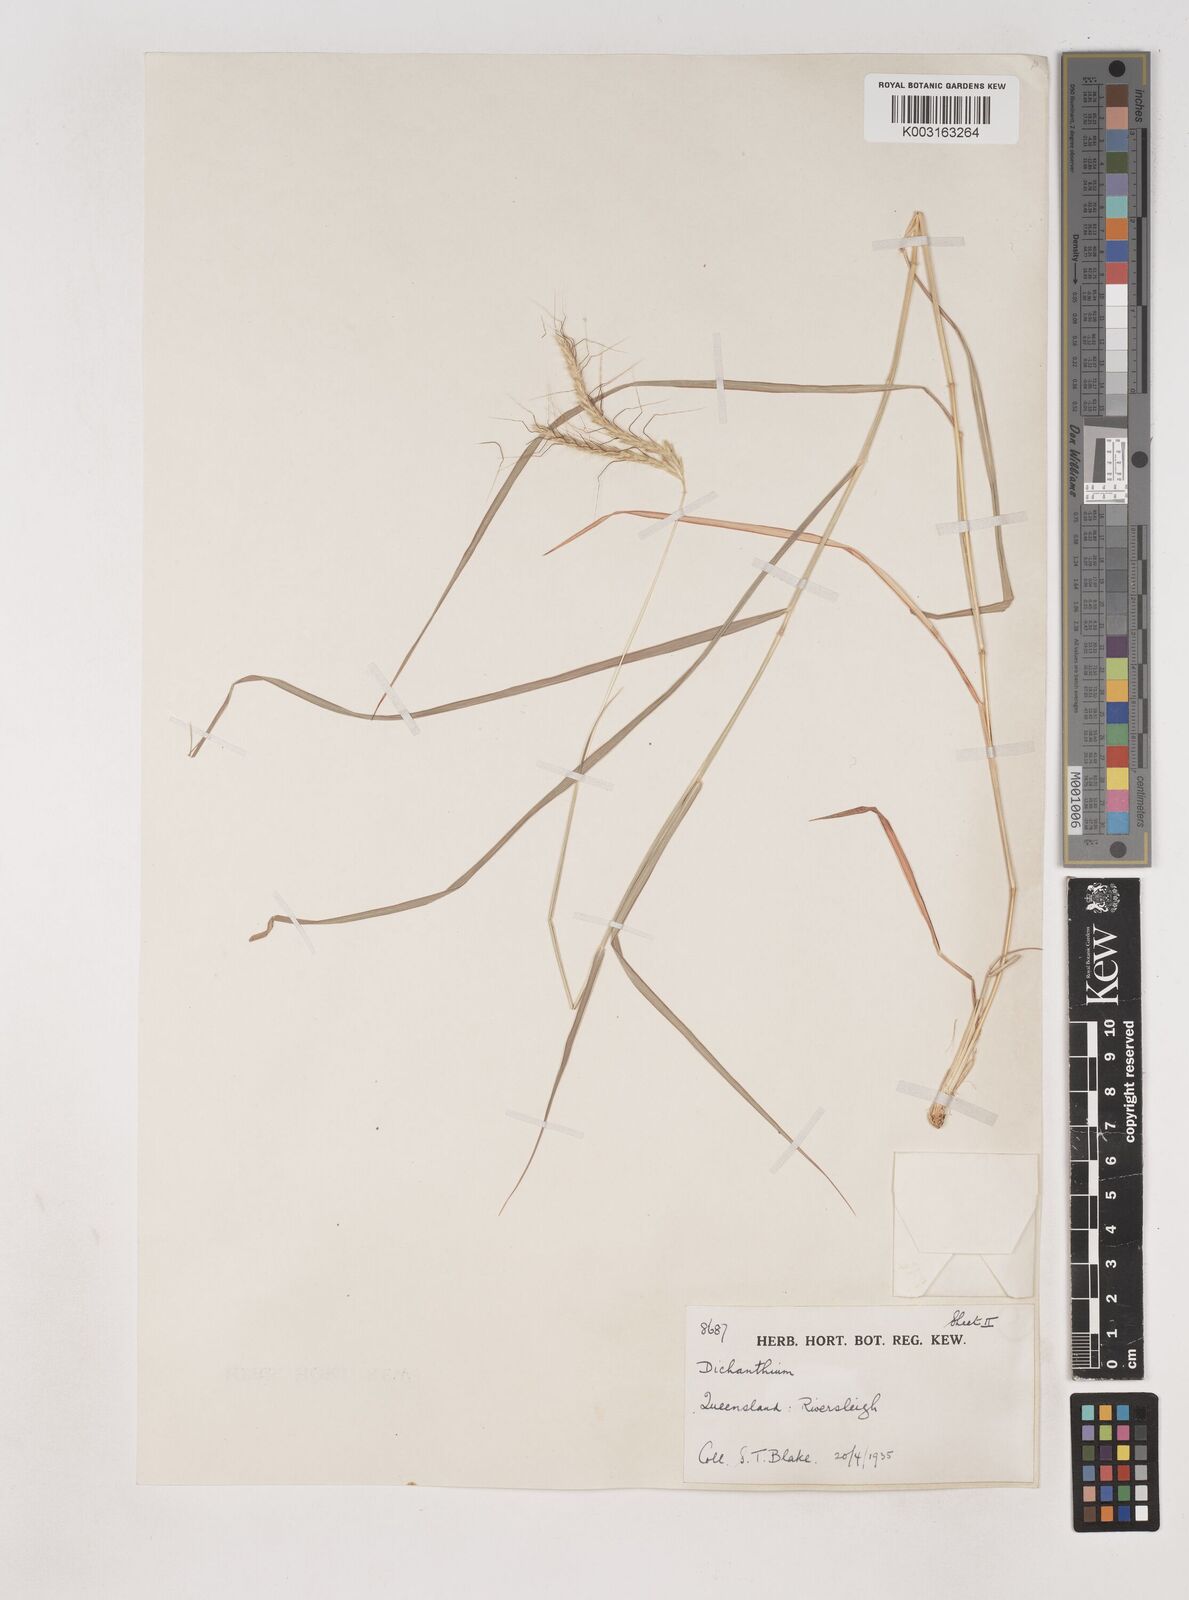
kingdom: Plantae
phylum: Tracheophyta
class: Liliopsida
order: Poales
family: Poaceae
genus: Dichanthium
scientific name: Dichanthium fecundum
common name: Bundle-bundle
